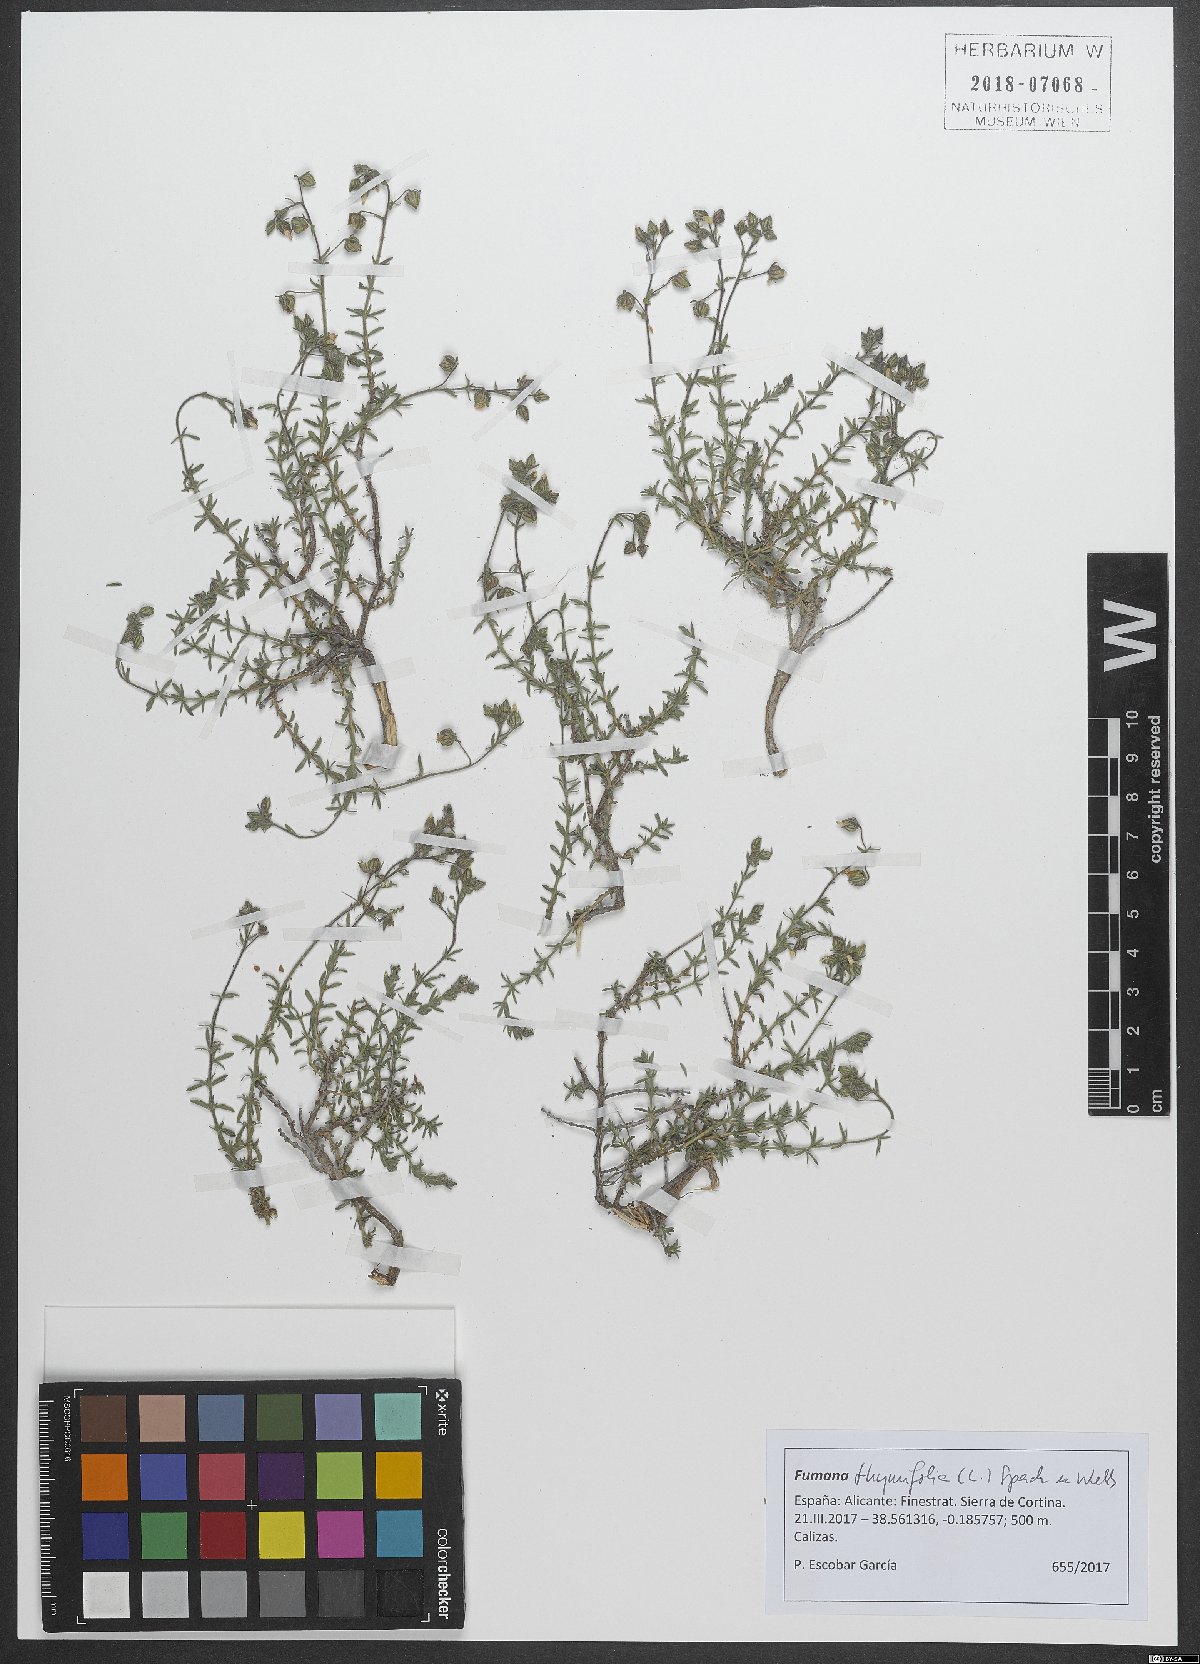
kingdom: Plantae
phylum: Tracheophyta
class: Magnoliopsida
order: Malvales
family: Cistaceae
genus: Fumana
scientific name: Fumana thymifolia
